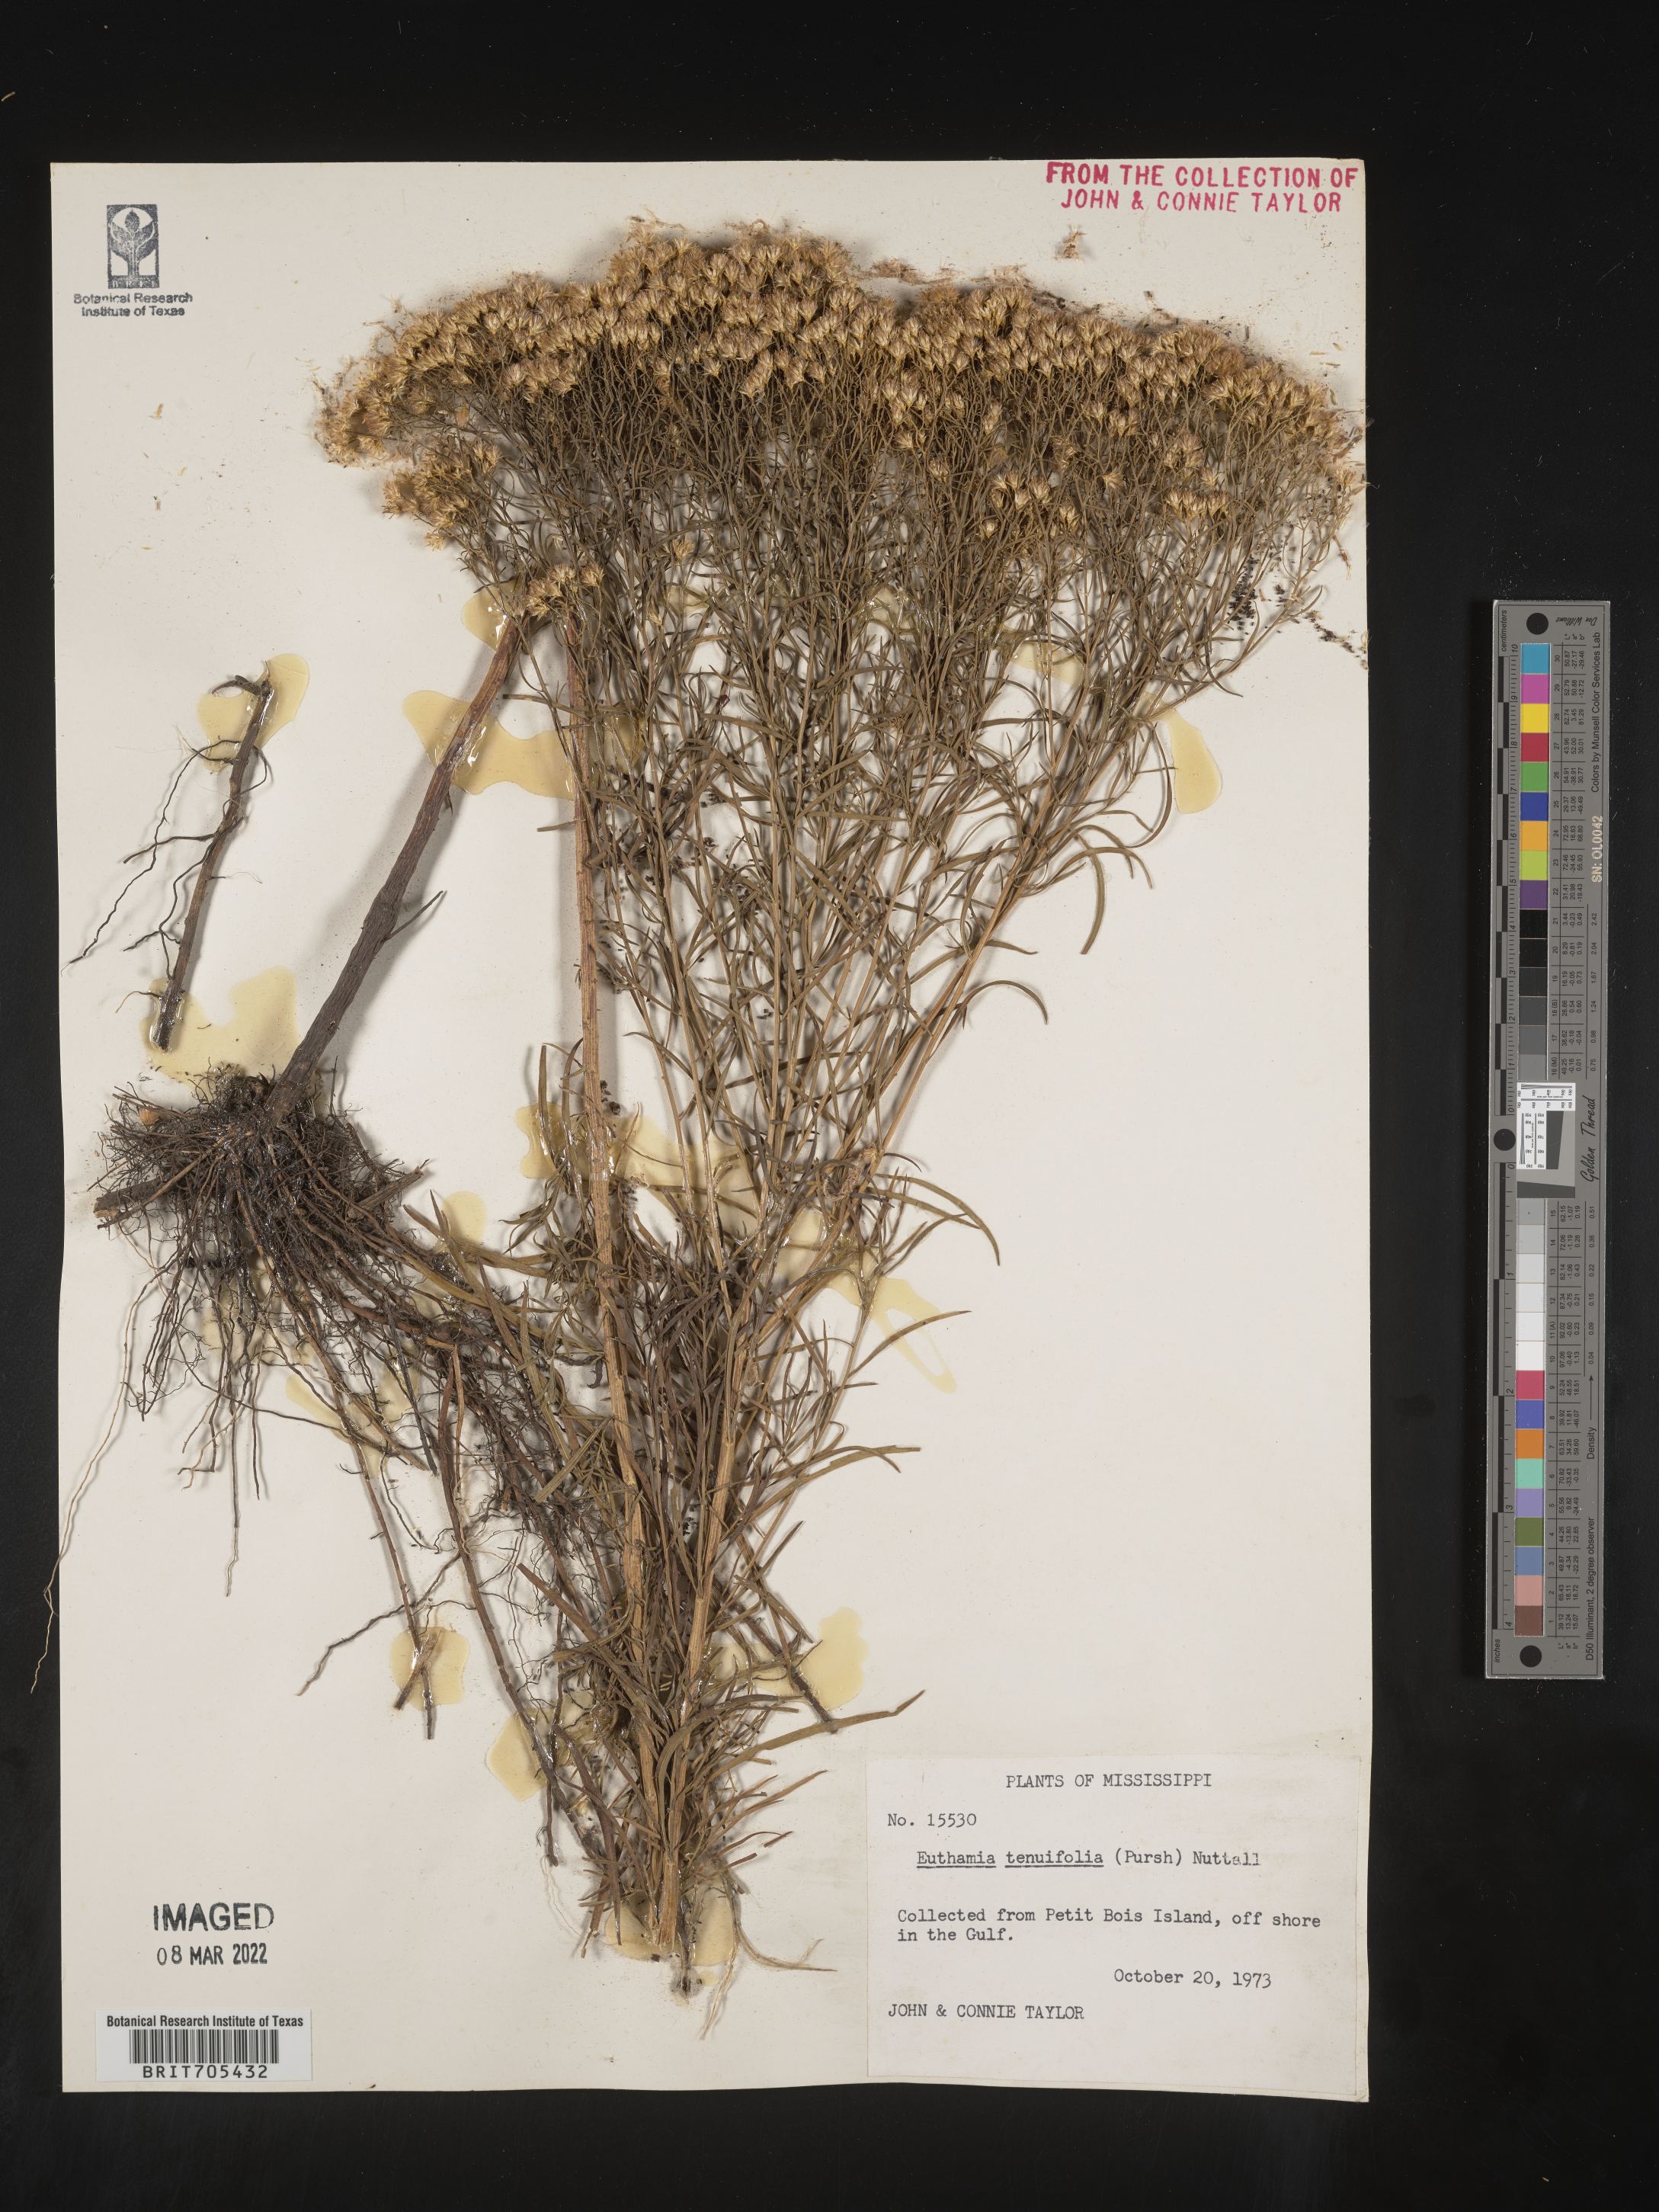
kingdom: Plantae
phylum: Tracheophyta
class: Magnoliopsida
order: Asterales
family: Asteraceae
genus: Euthamia
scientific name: Euthamia
